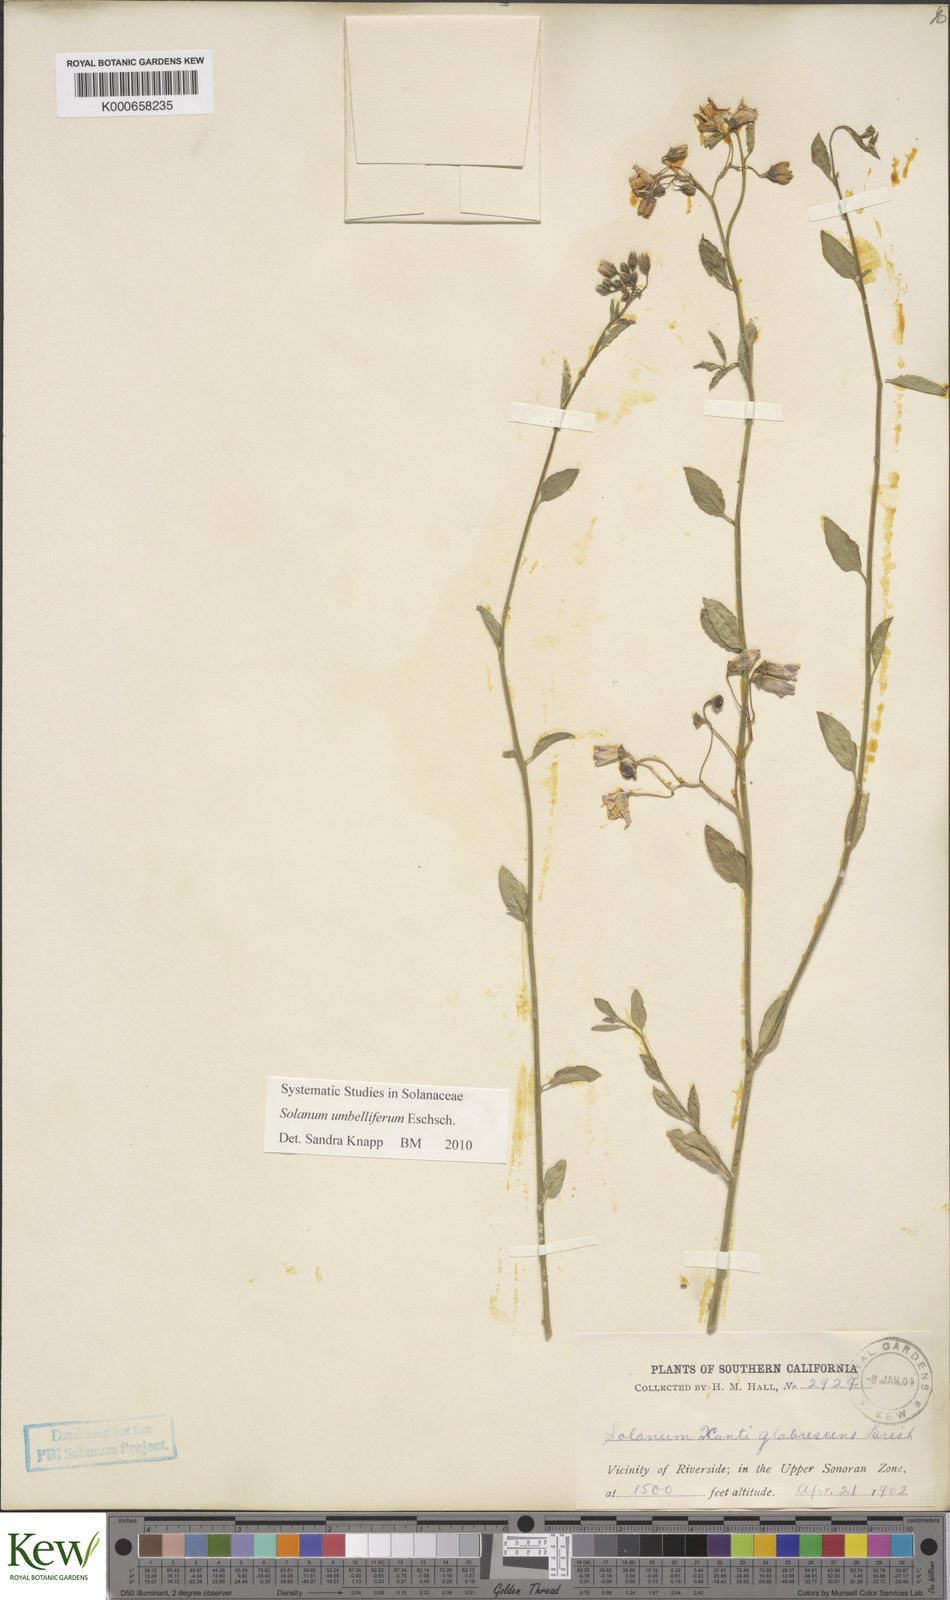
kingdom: Plantae
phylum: Tracheophyta
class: Magnoliopsida
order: Solanales
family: Solanaceae
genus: Solanum
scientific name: Solanum umbelliferum
